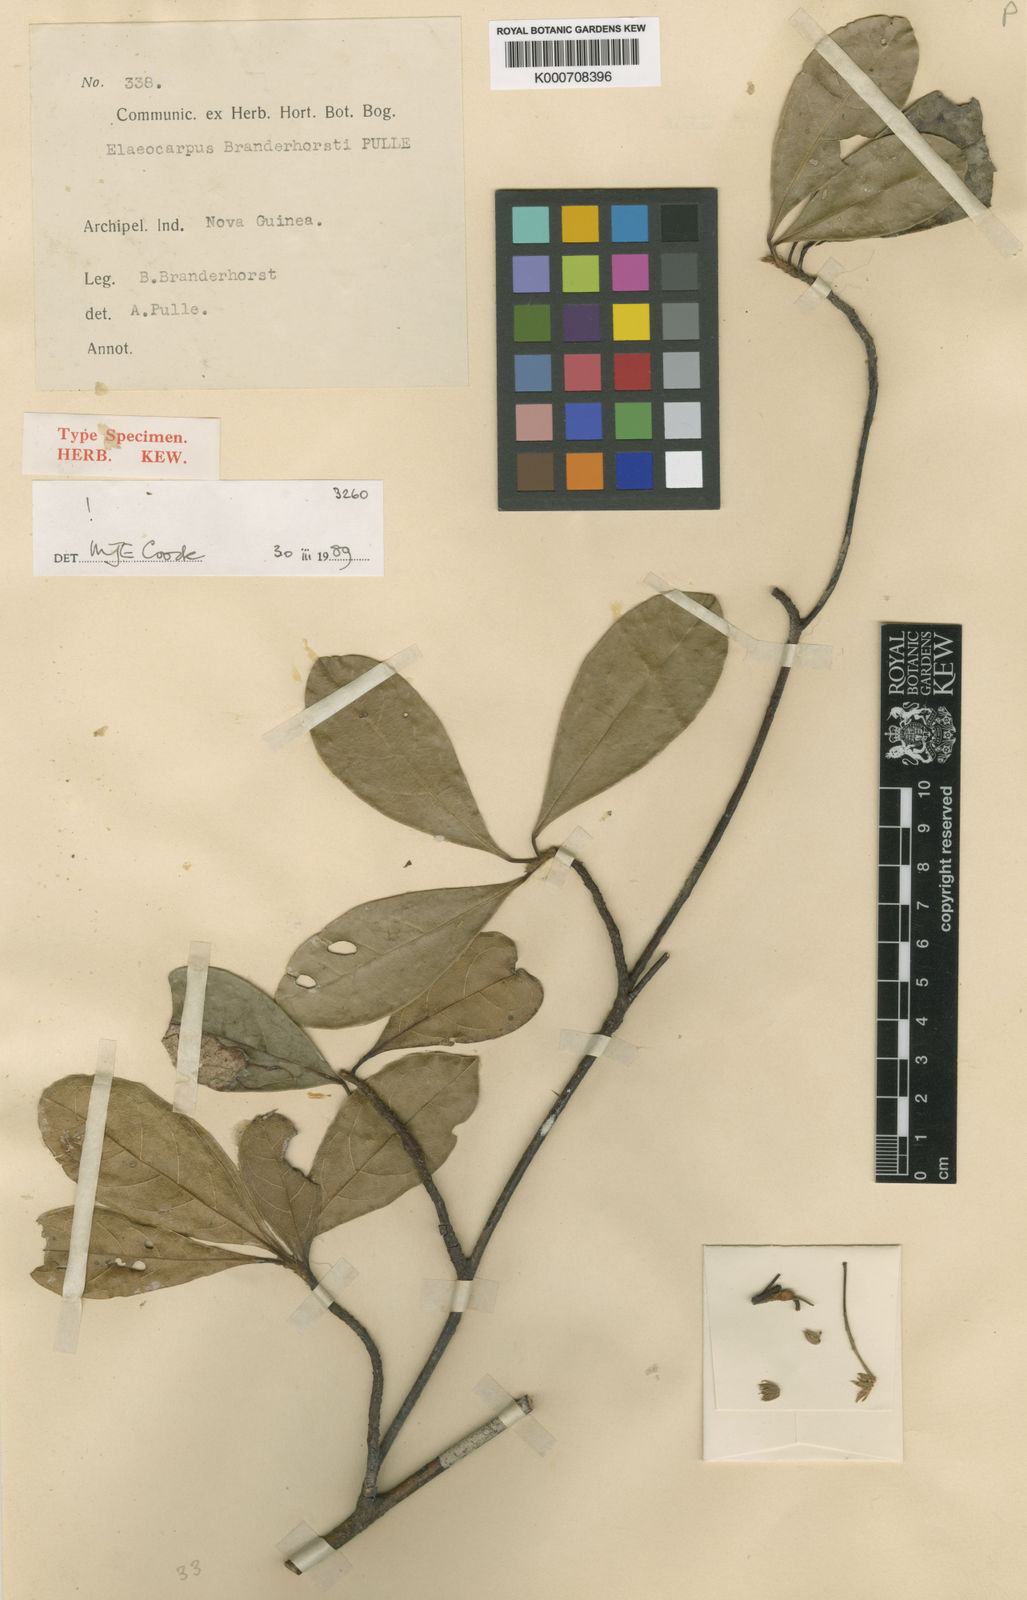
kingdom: Plantae
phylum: Tracheophyta
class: Magnoliopsida
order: Oxalidales
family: Elaeocarpaceae
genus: Elaeocarpus
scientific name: Elaeocarpus branderhorstii
